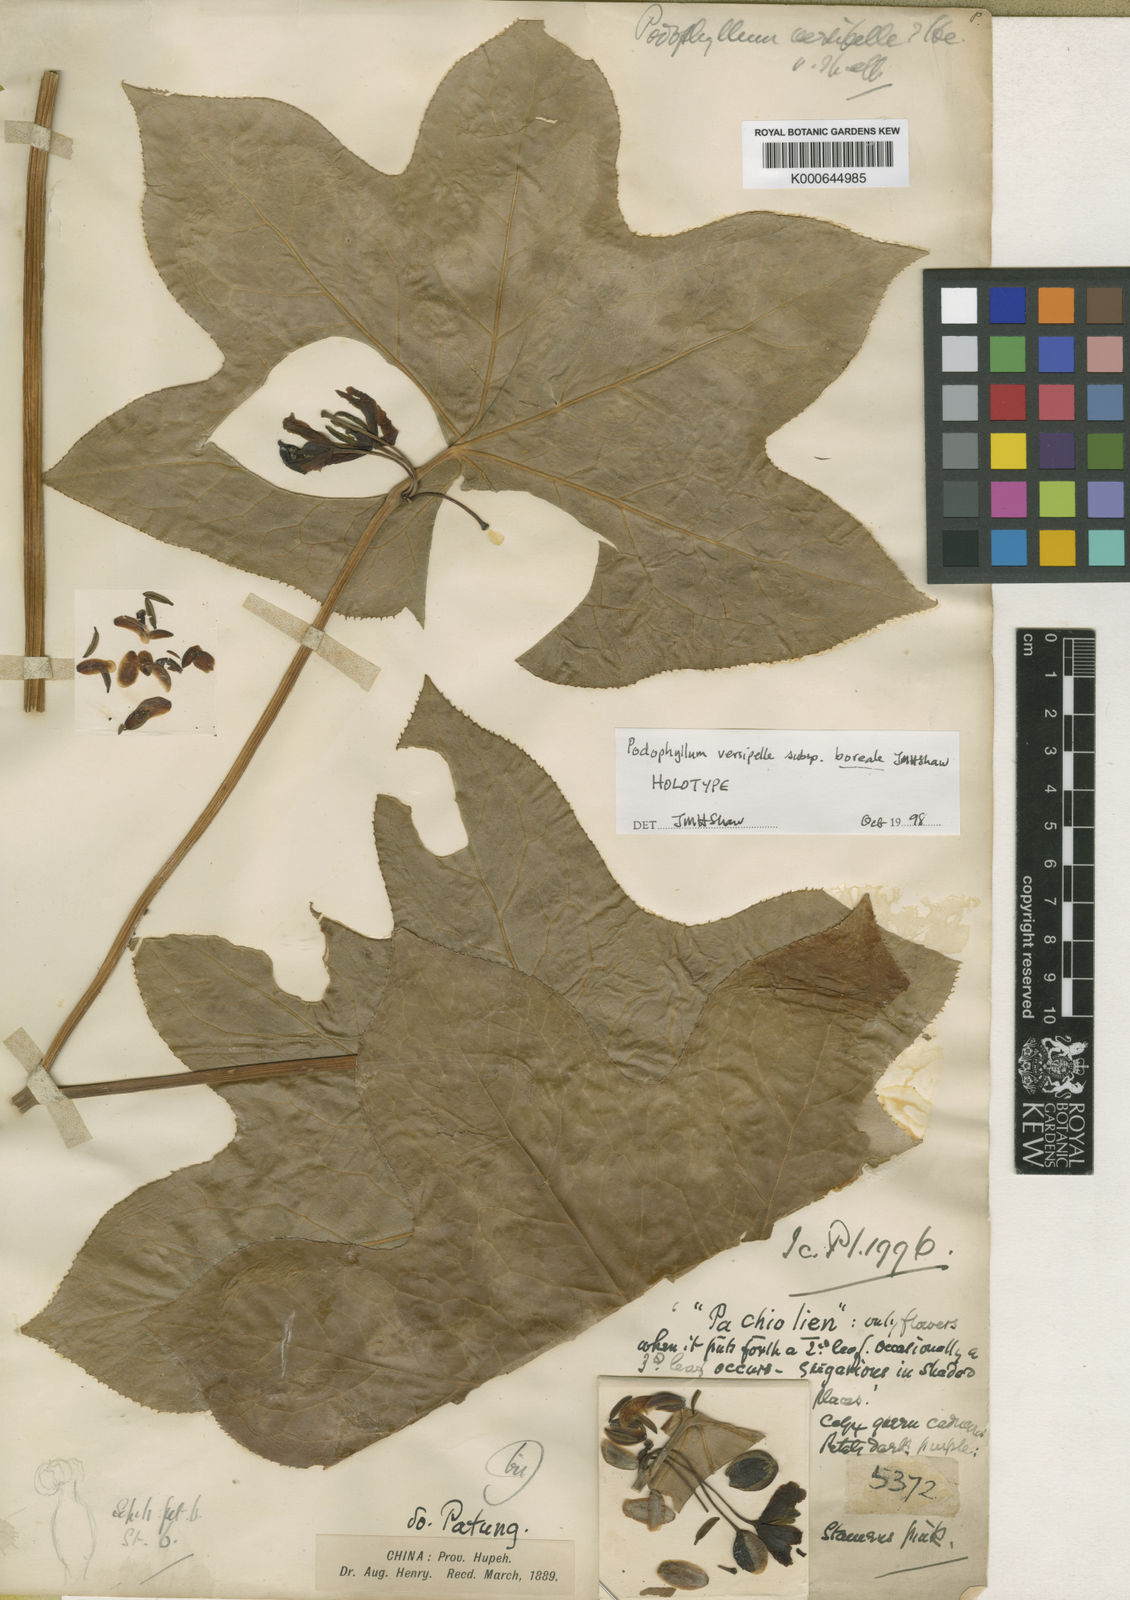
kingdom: Plantae
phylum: Tracheophyta
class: Magnoliopsida
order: Ranunculales
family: Berberidaceae
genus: Dysosma
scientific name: Dysosma versipellis
